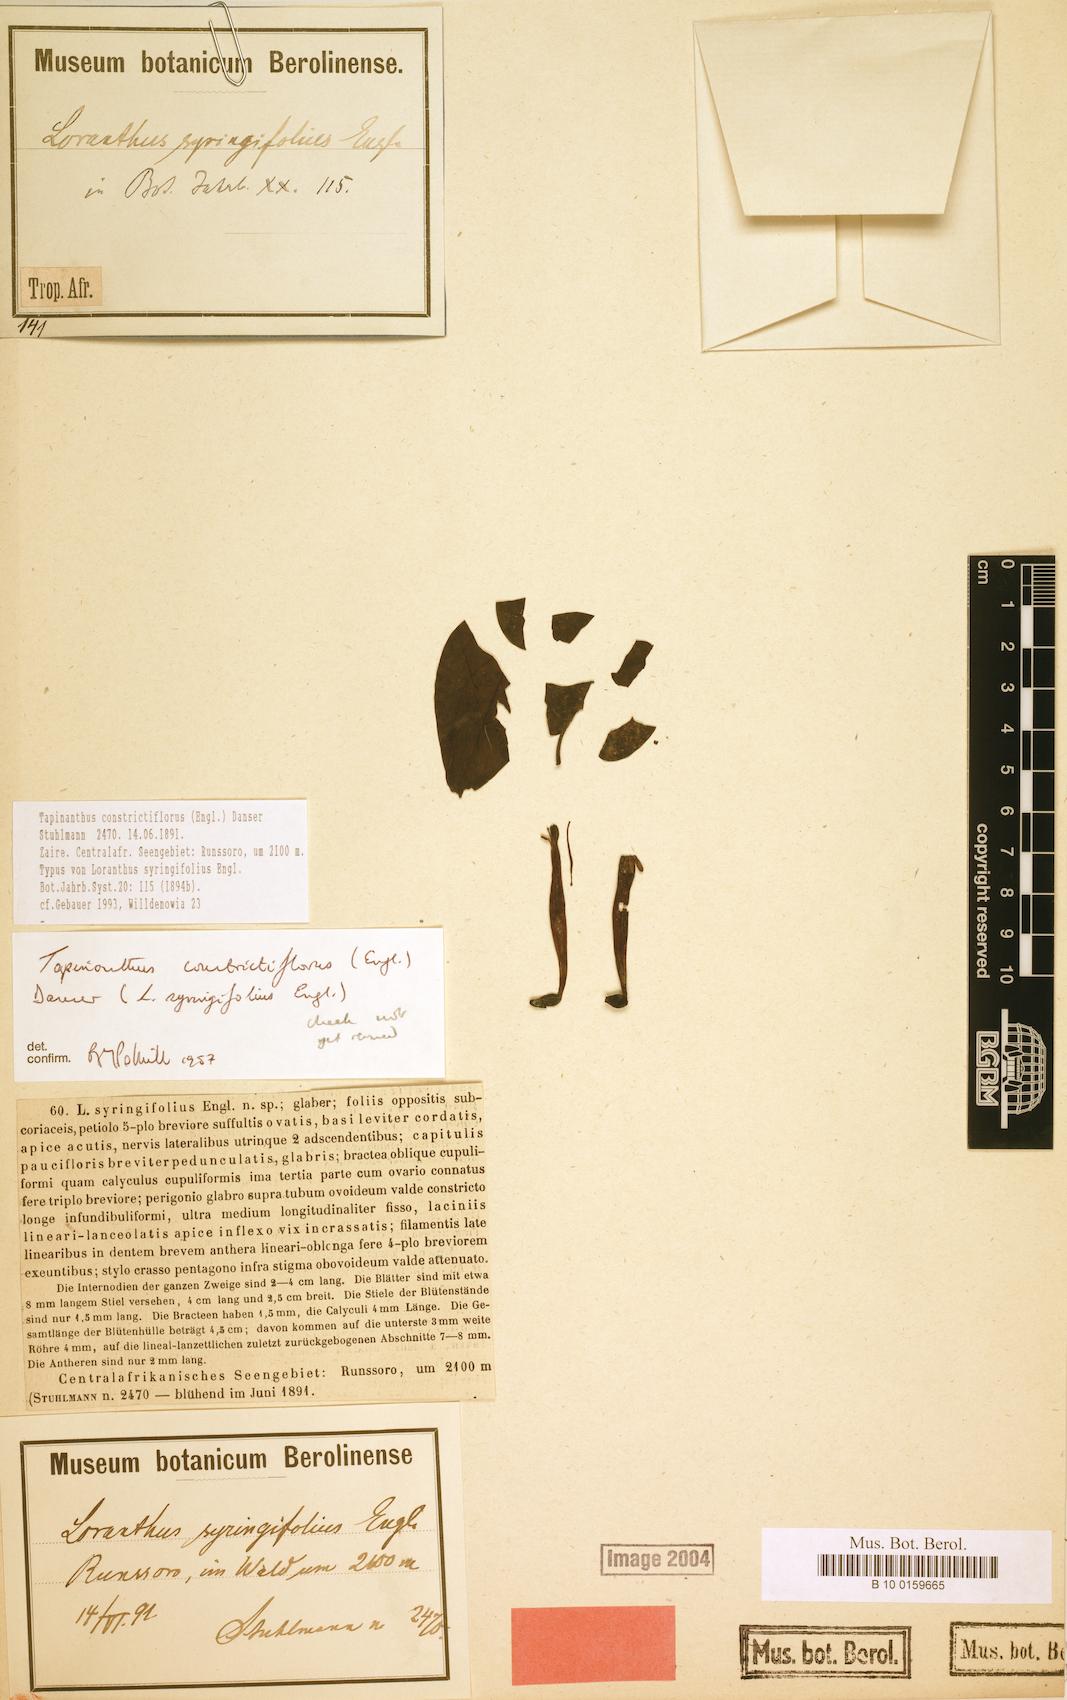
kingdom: Plantae
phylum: Tracheophyta
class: Magnoliopsida
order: Santalales
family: Loranthaceae
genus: Tapinanthus
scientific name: Tapinanthus constrictiflorus
